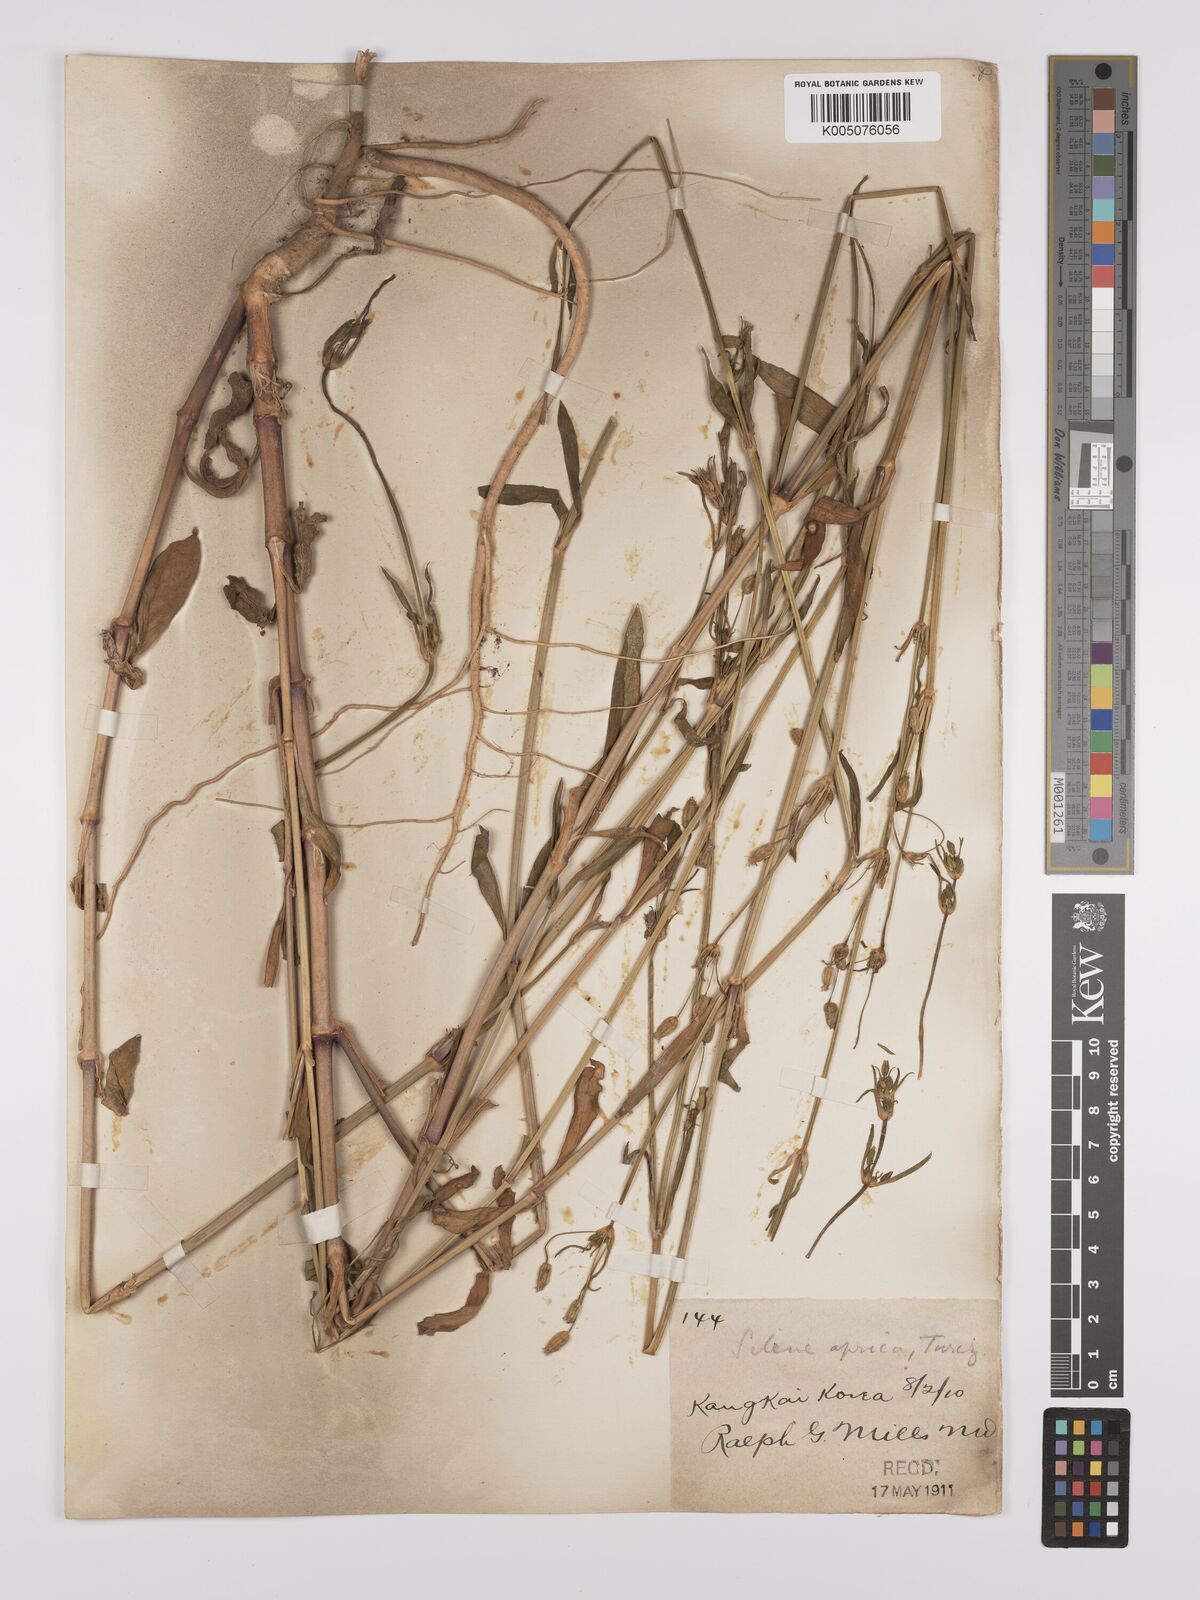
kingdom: Plantae
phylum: Tracheophyta
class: Magnoliopsida
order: Caryophyllales
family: Caryophyllaceae
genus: Silene
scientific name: Silene aprica
